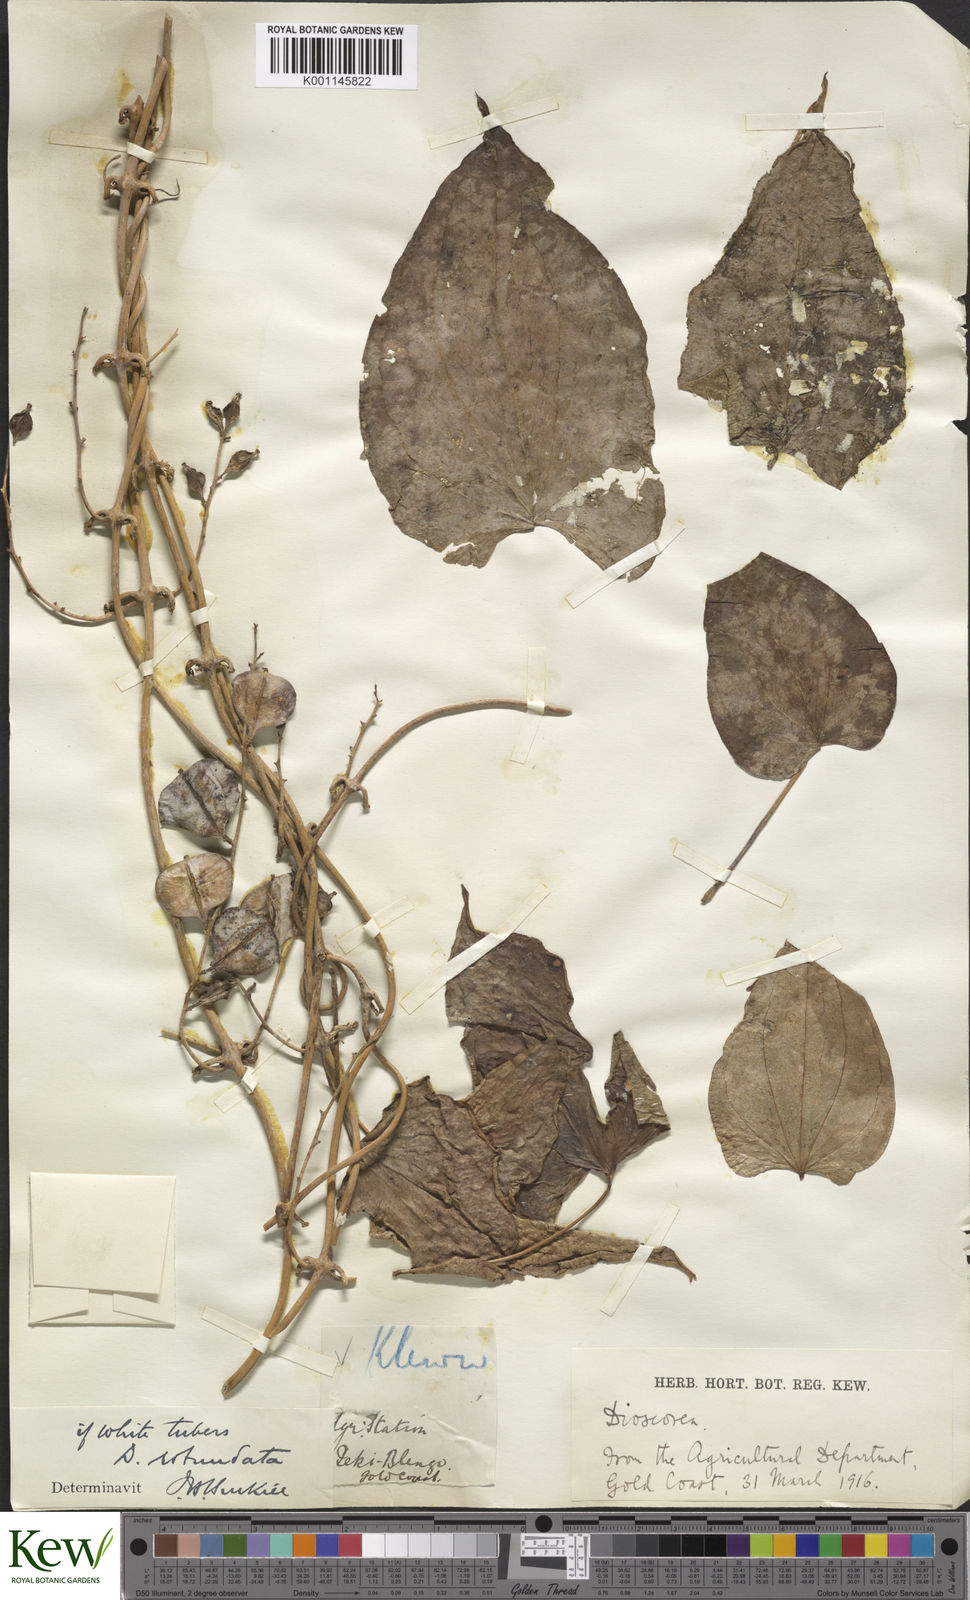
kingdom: Plantae
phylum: Tracheophyta
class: Liliopsida
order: Dioscoreales
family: Dioscoreaceae
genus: Dioscorea
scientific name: Dioscorea cayenensis
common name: Attoto yam
